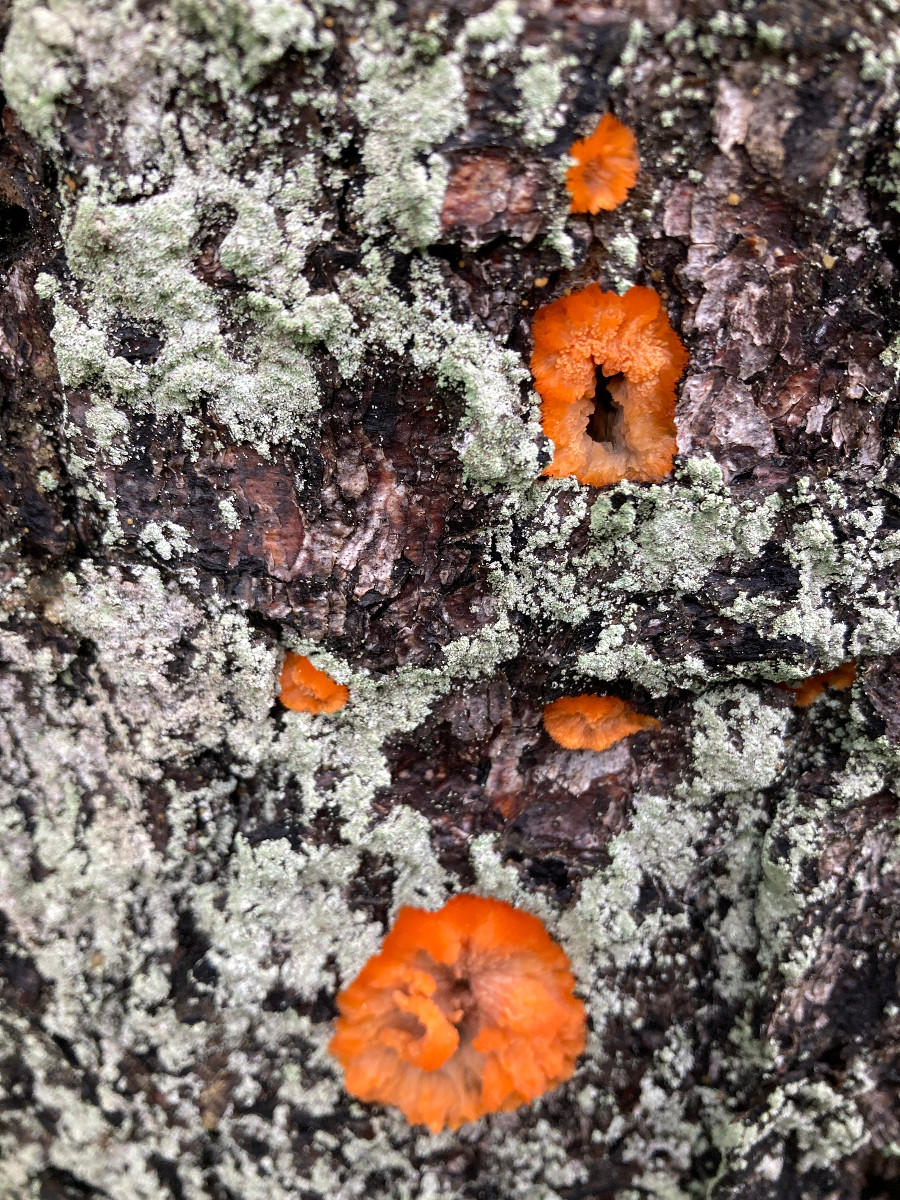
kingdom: Fungi
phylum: Basidiomycota
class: Agaricomycetes
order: Polyporales
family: Meruliaceae
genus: Phlebia
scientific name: Phlebia radiata
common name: stråle-åresvamp
